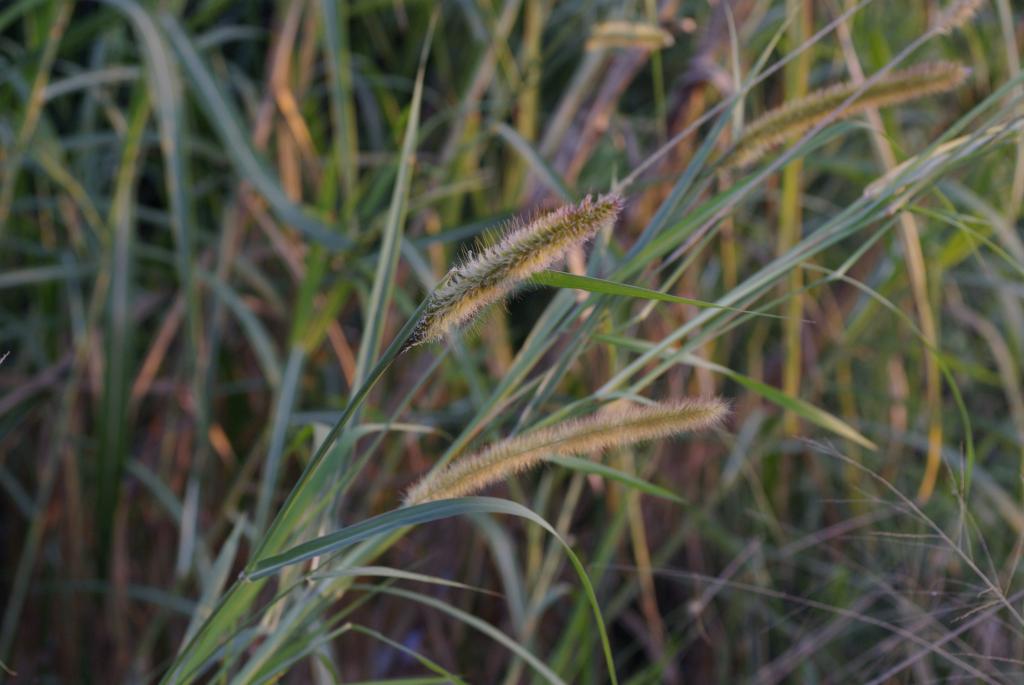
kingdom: Plantae
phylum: Tracheophyta
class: Liliopsida
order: Poales
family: Poaceae
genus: Cenchrus
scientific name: Cenchrus purpureus
